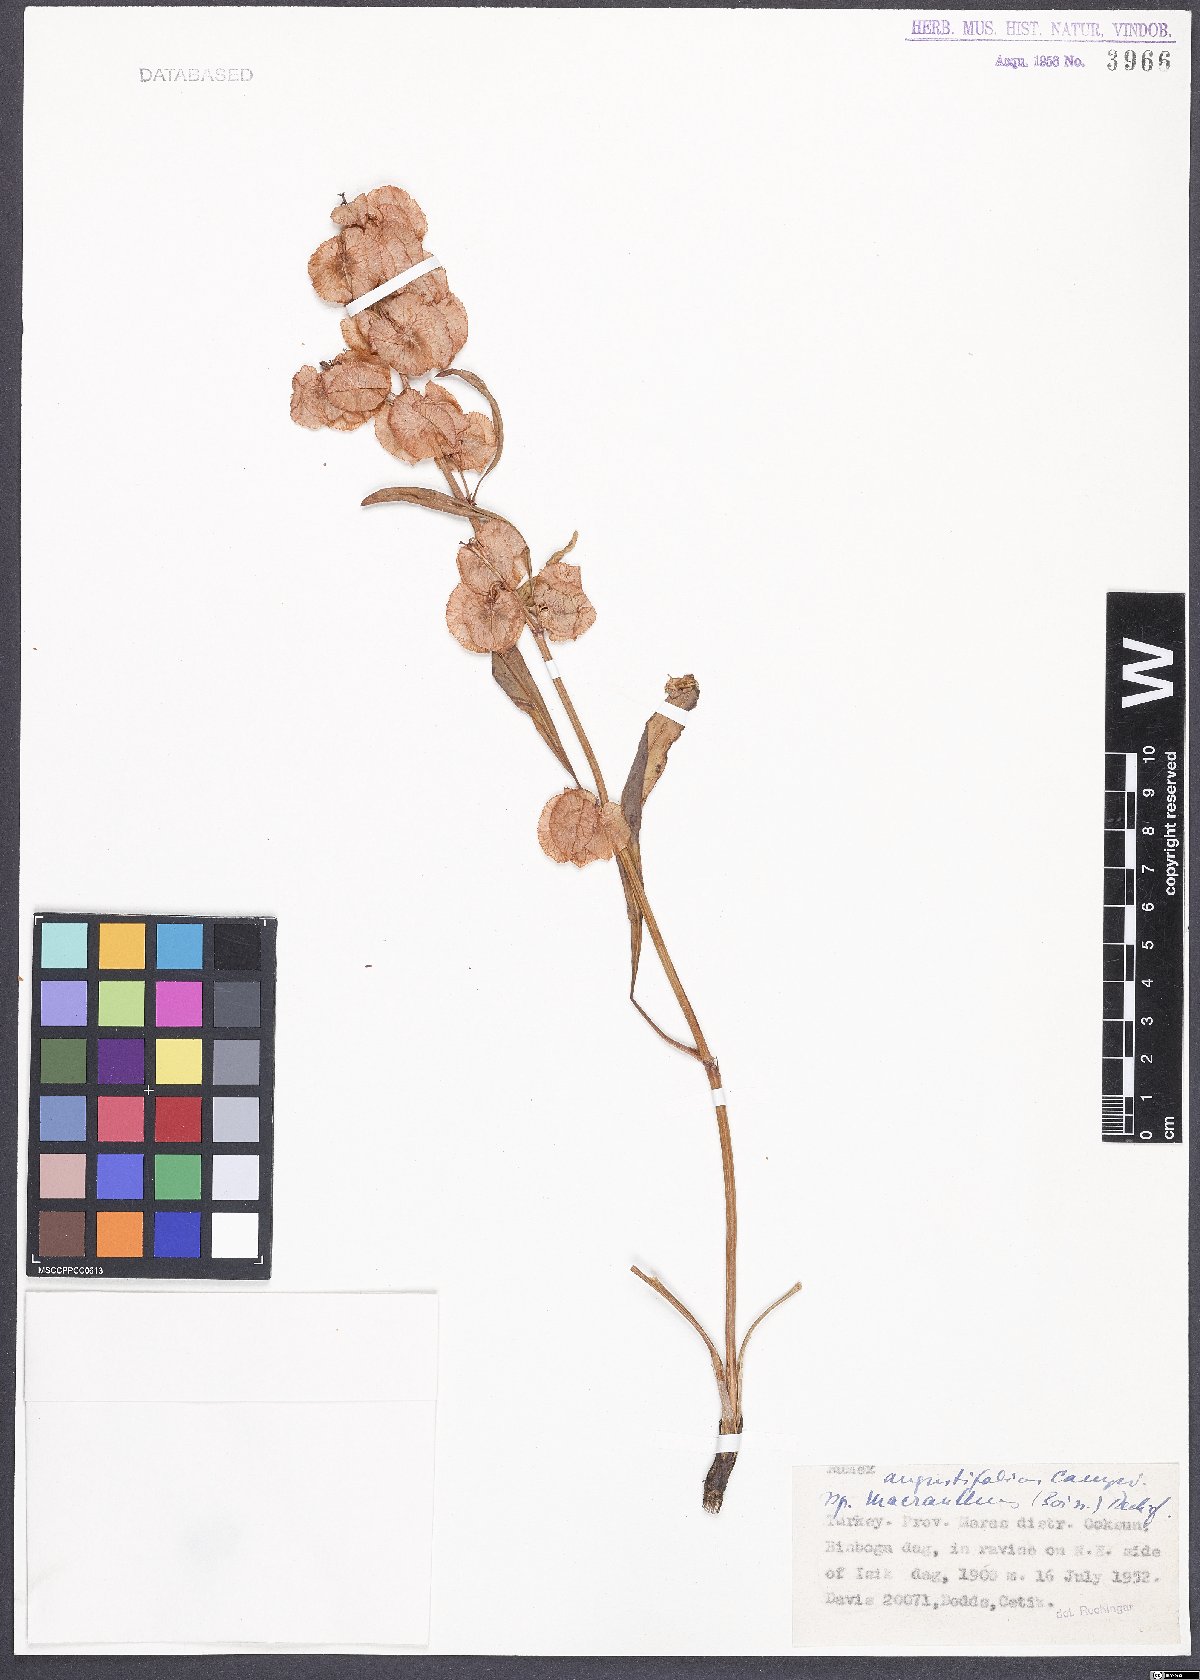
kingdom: Plantae
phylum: Tracheophyta
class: Magnoliopsida
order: Caryophyllales
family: Polygonaceae
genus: Rumex
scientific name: Rumex angustifolius
